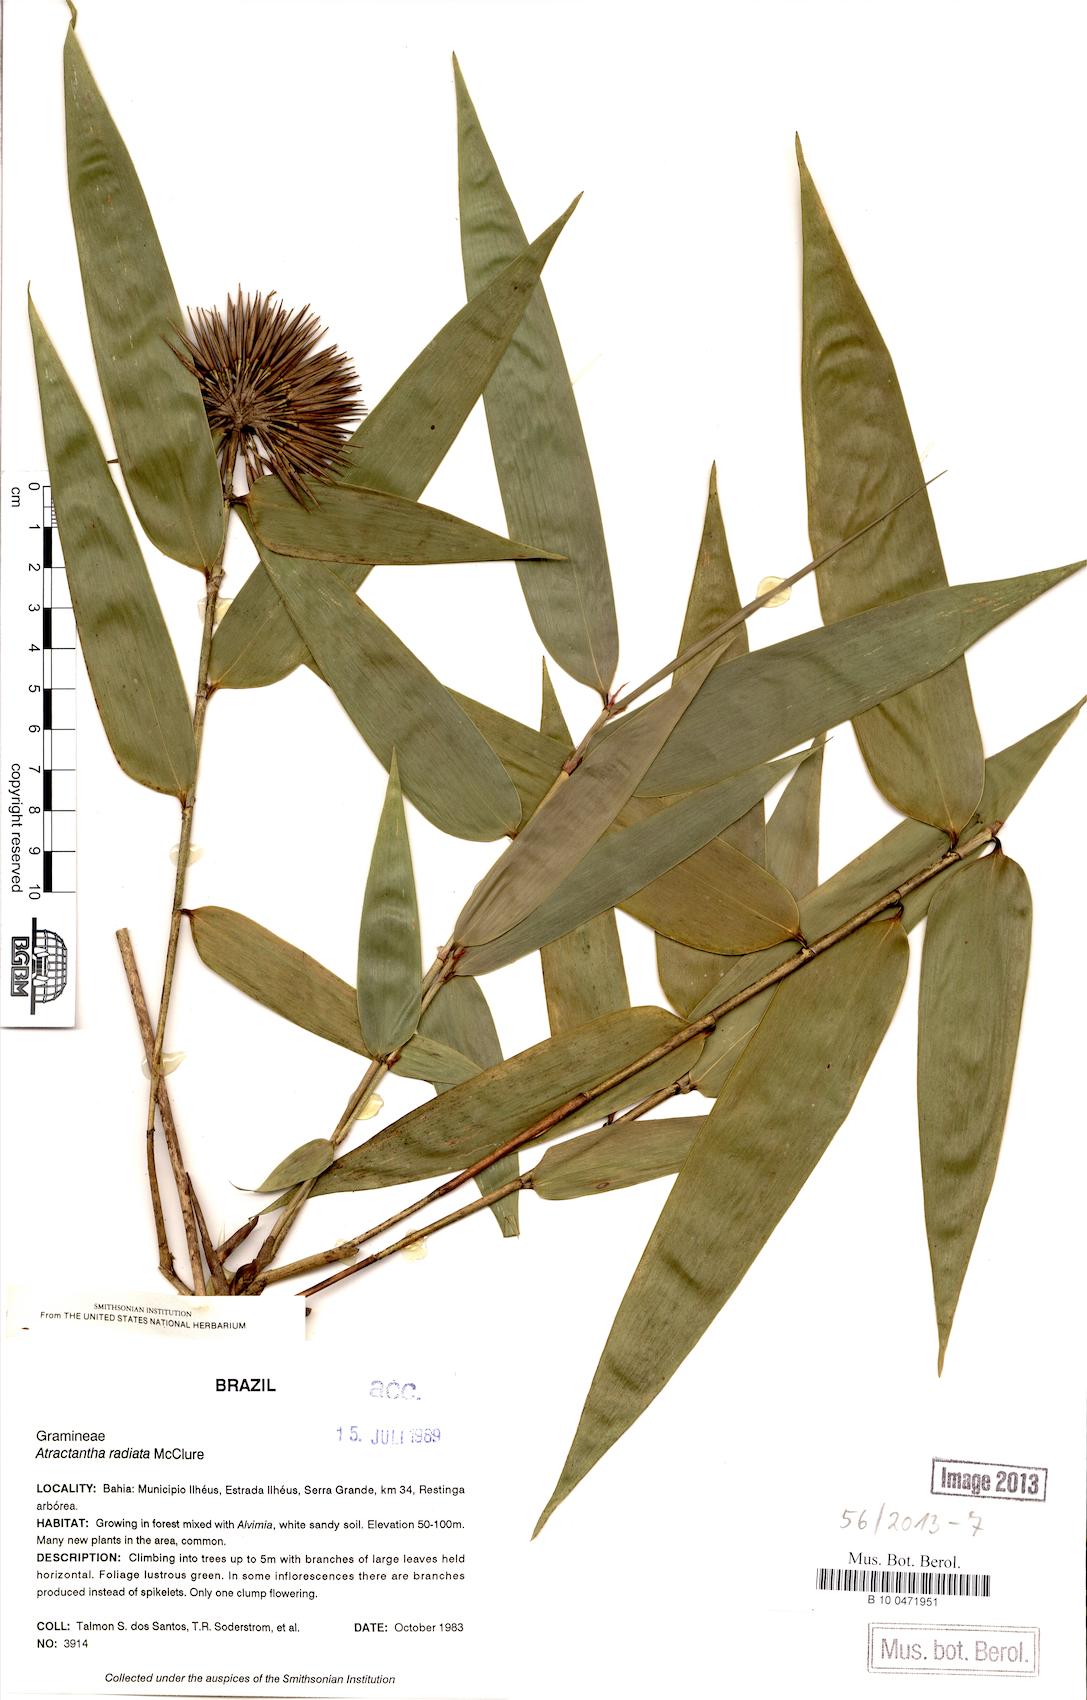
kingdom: Plantae
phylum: Tracheophyta
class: Liliopsida
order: Poales
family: Poaceae
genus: Atractantha
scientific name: Atractantha radiata
